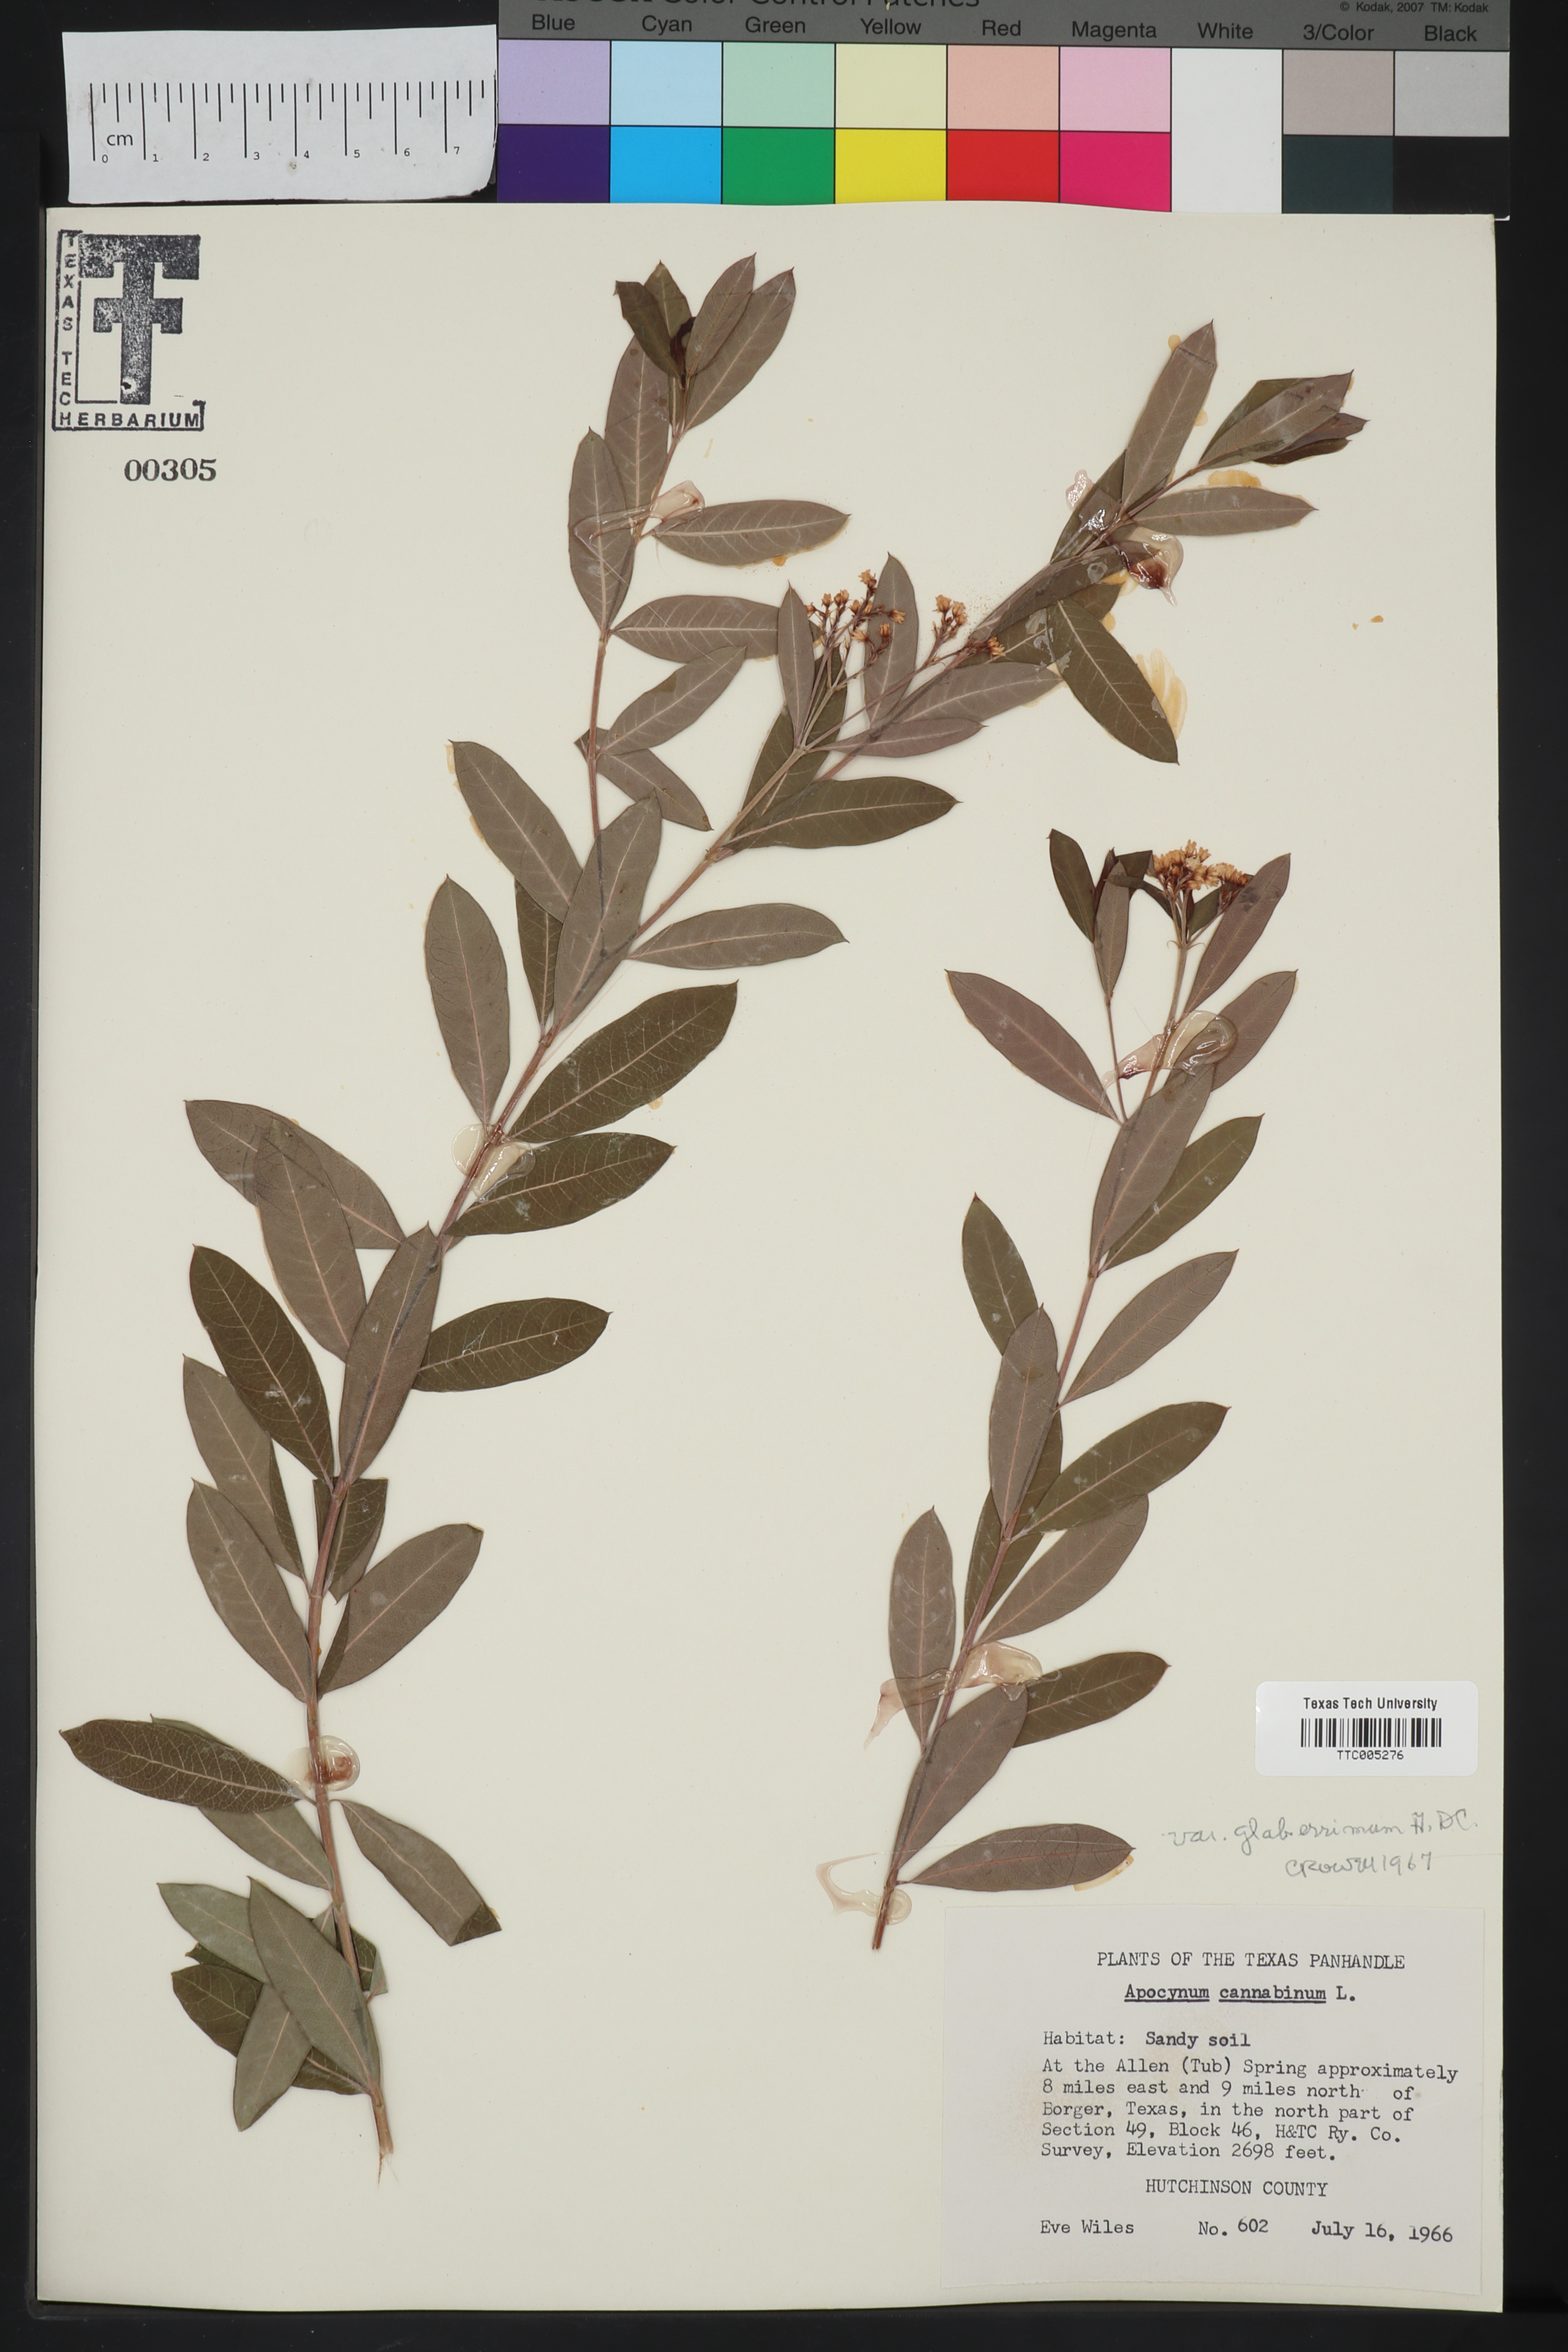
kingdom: Plantae
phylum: Tracheophyta
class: Magnoliopsida
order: Gentianales
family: Apocynaceae
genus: Apocynum
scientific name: Apocynum cannabinum
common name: Hemp dogbane
